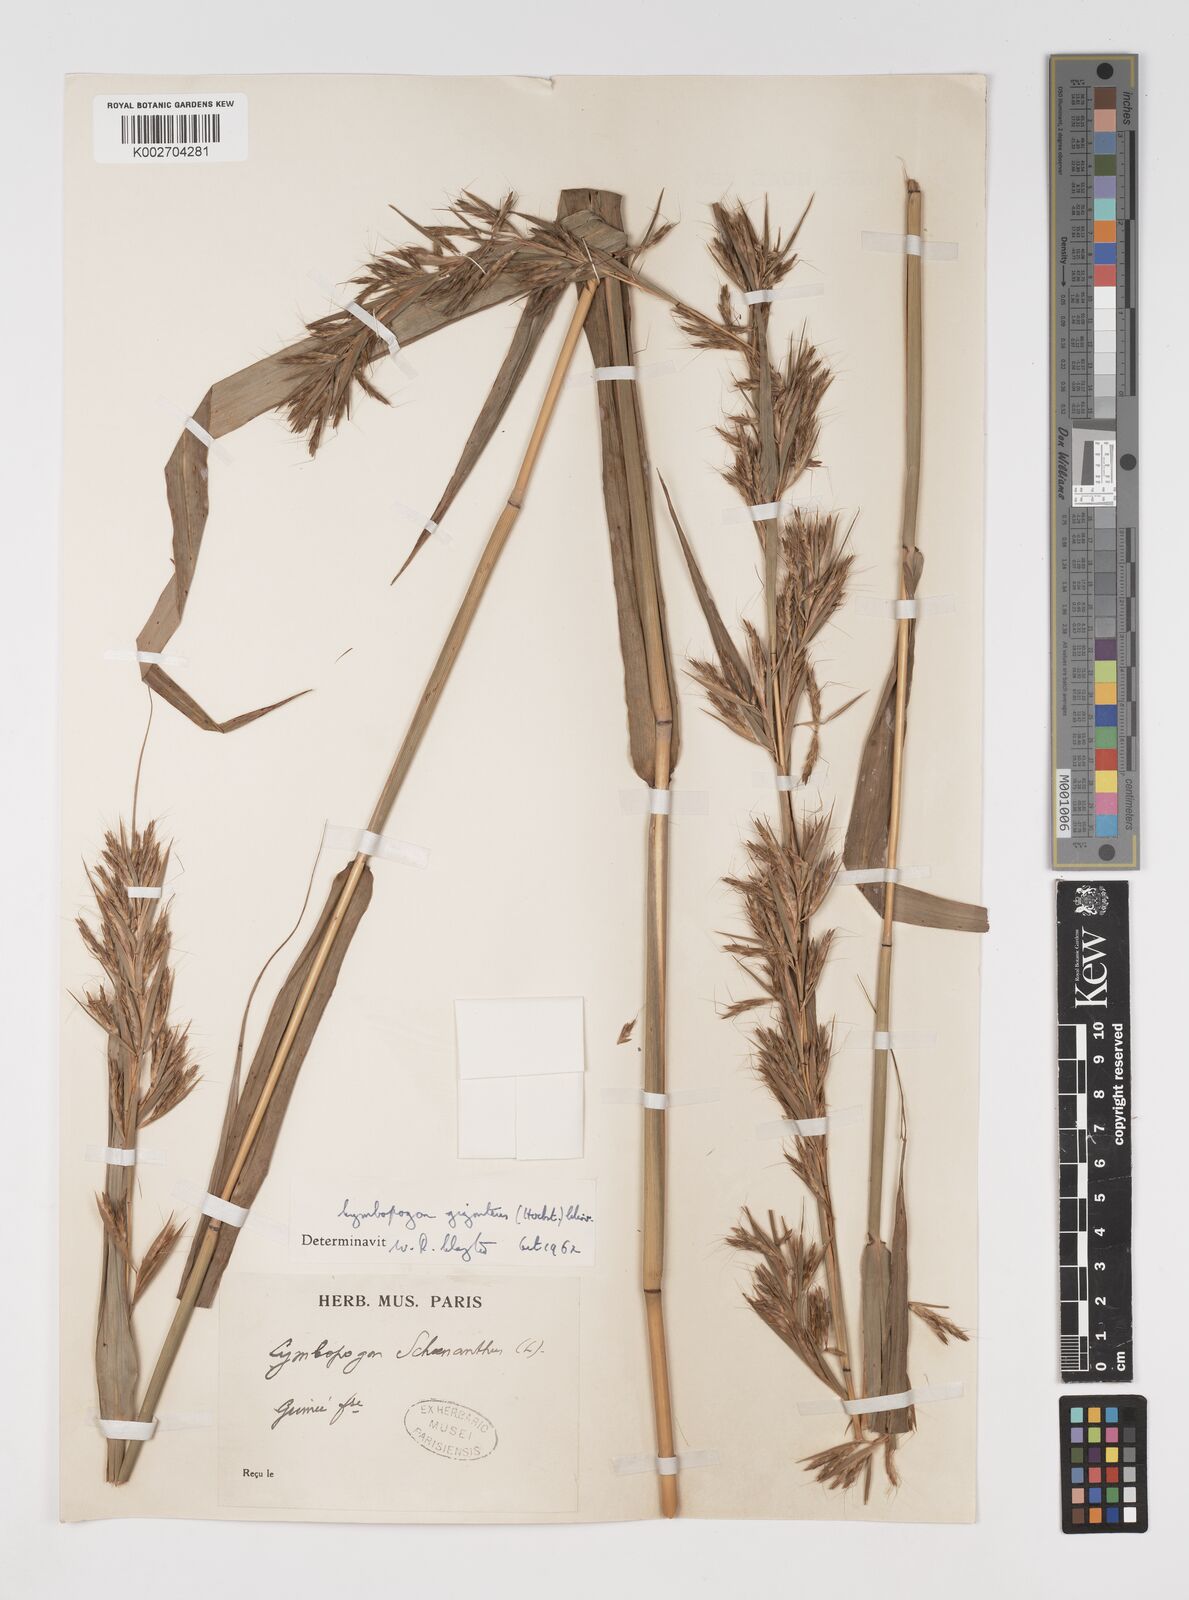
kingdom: Plantae
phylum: Tracheophyta
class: Liliopsida
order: Poales
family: Poaceae
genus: Cymbopogon
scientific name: Cymbopogon giganteus
